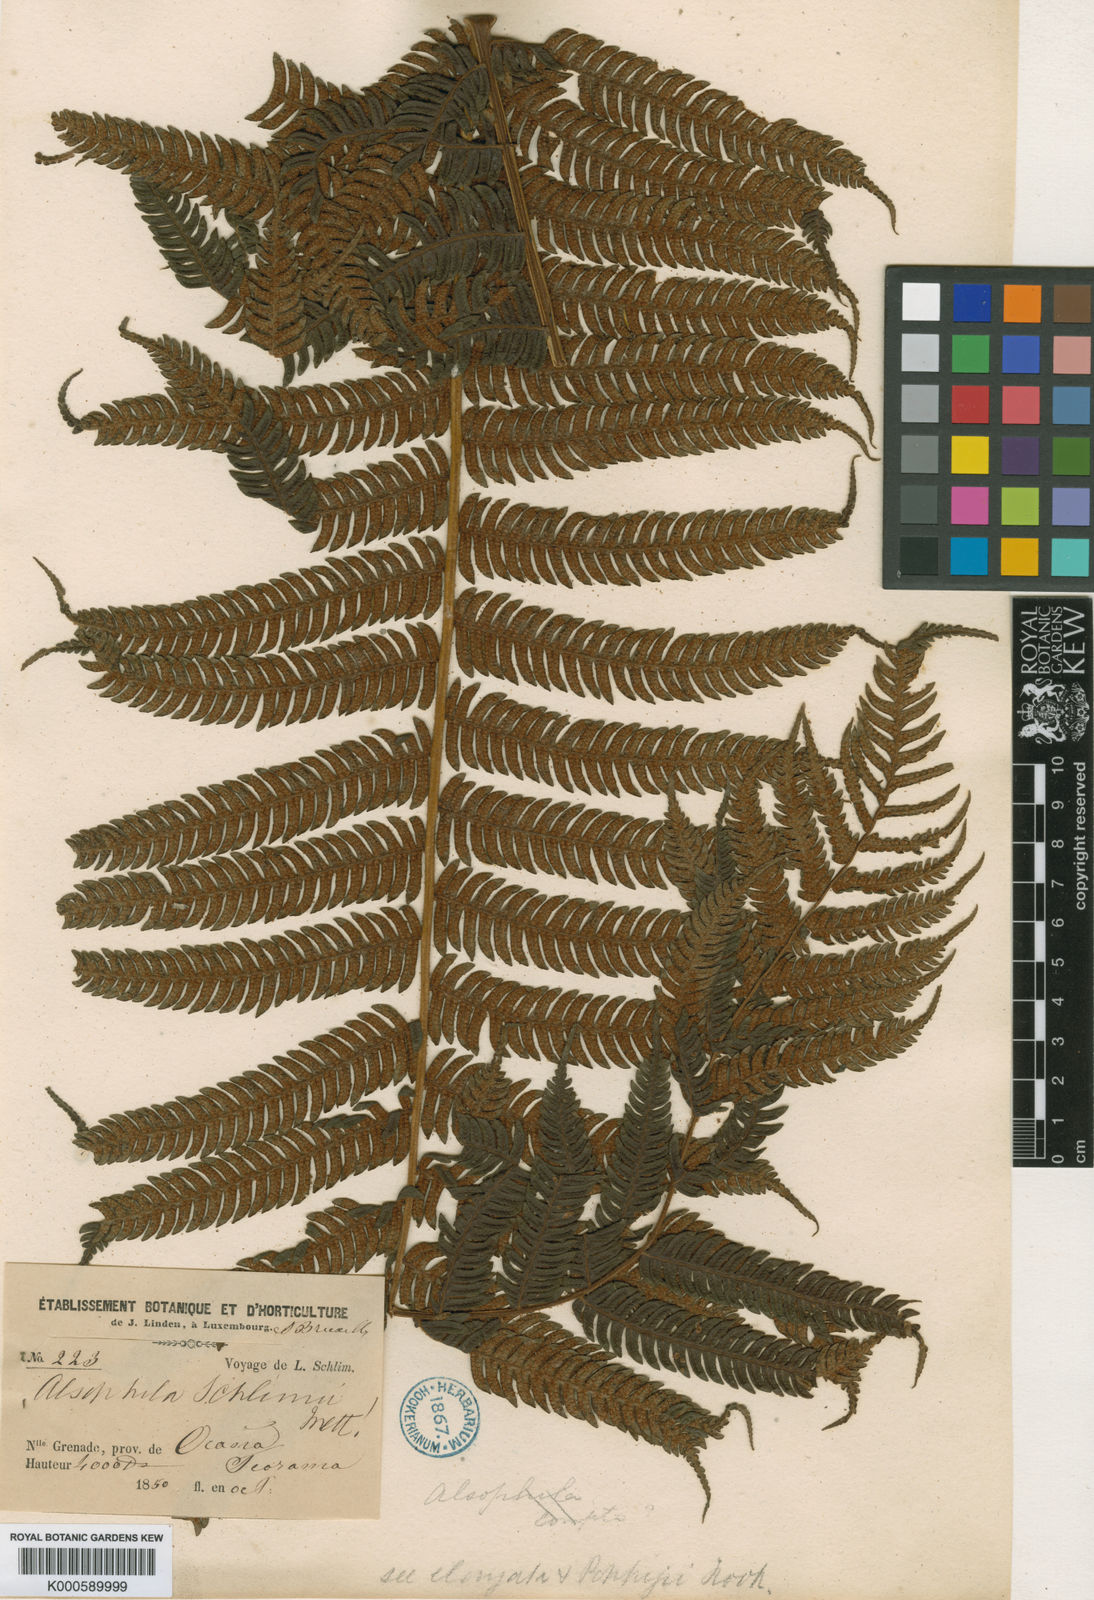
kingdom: Plantae
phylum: Tracheophyta
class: Polypodiopsida
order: Cyatheales
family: Cyatheaceae
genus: Cyathea
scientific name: Cyathea schlimii
